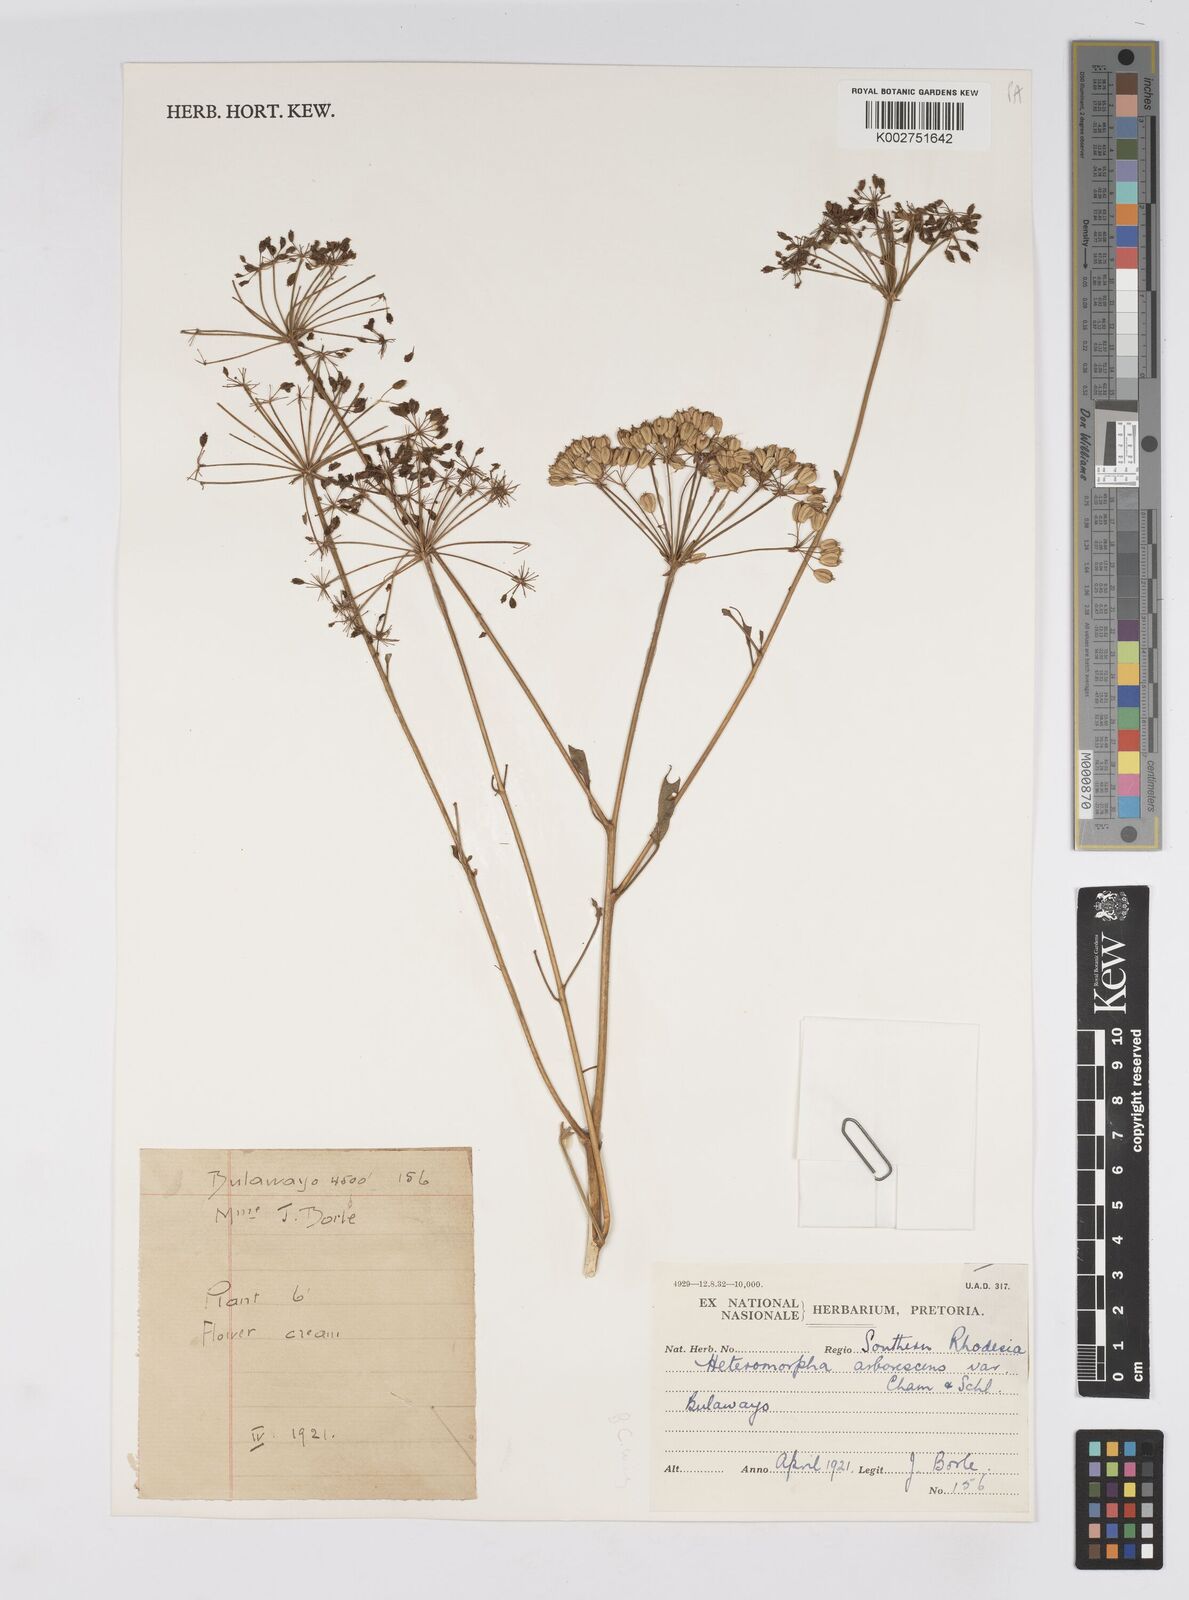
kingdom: Plantae
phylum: Tracheophyta
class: Magnoliopsida
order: Apiales
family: Apiaceae
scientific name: Apiaceae
